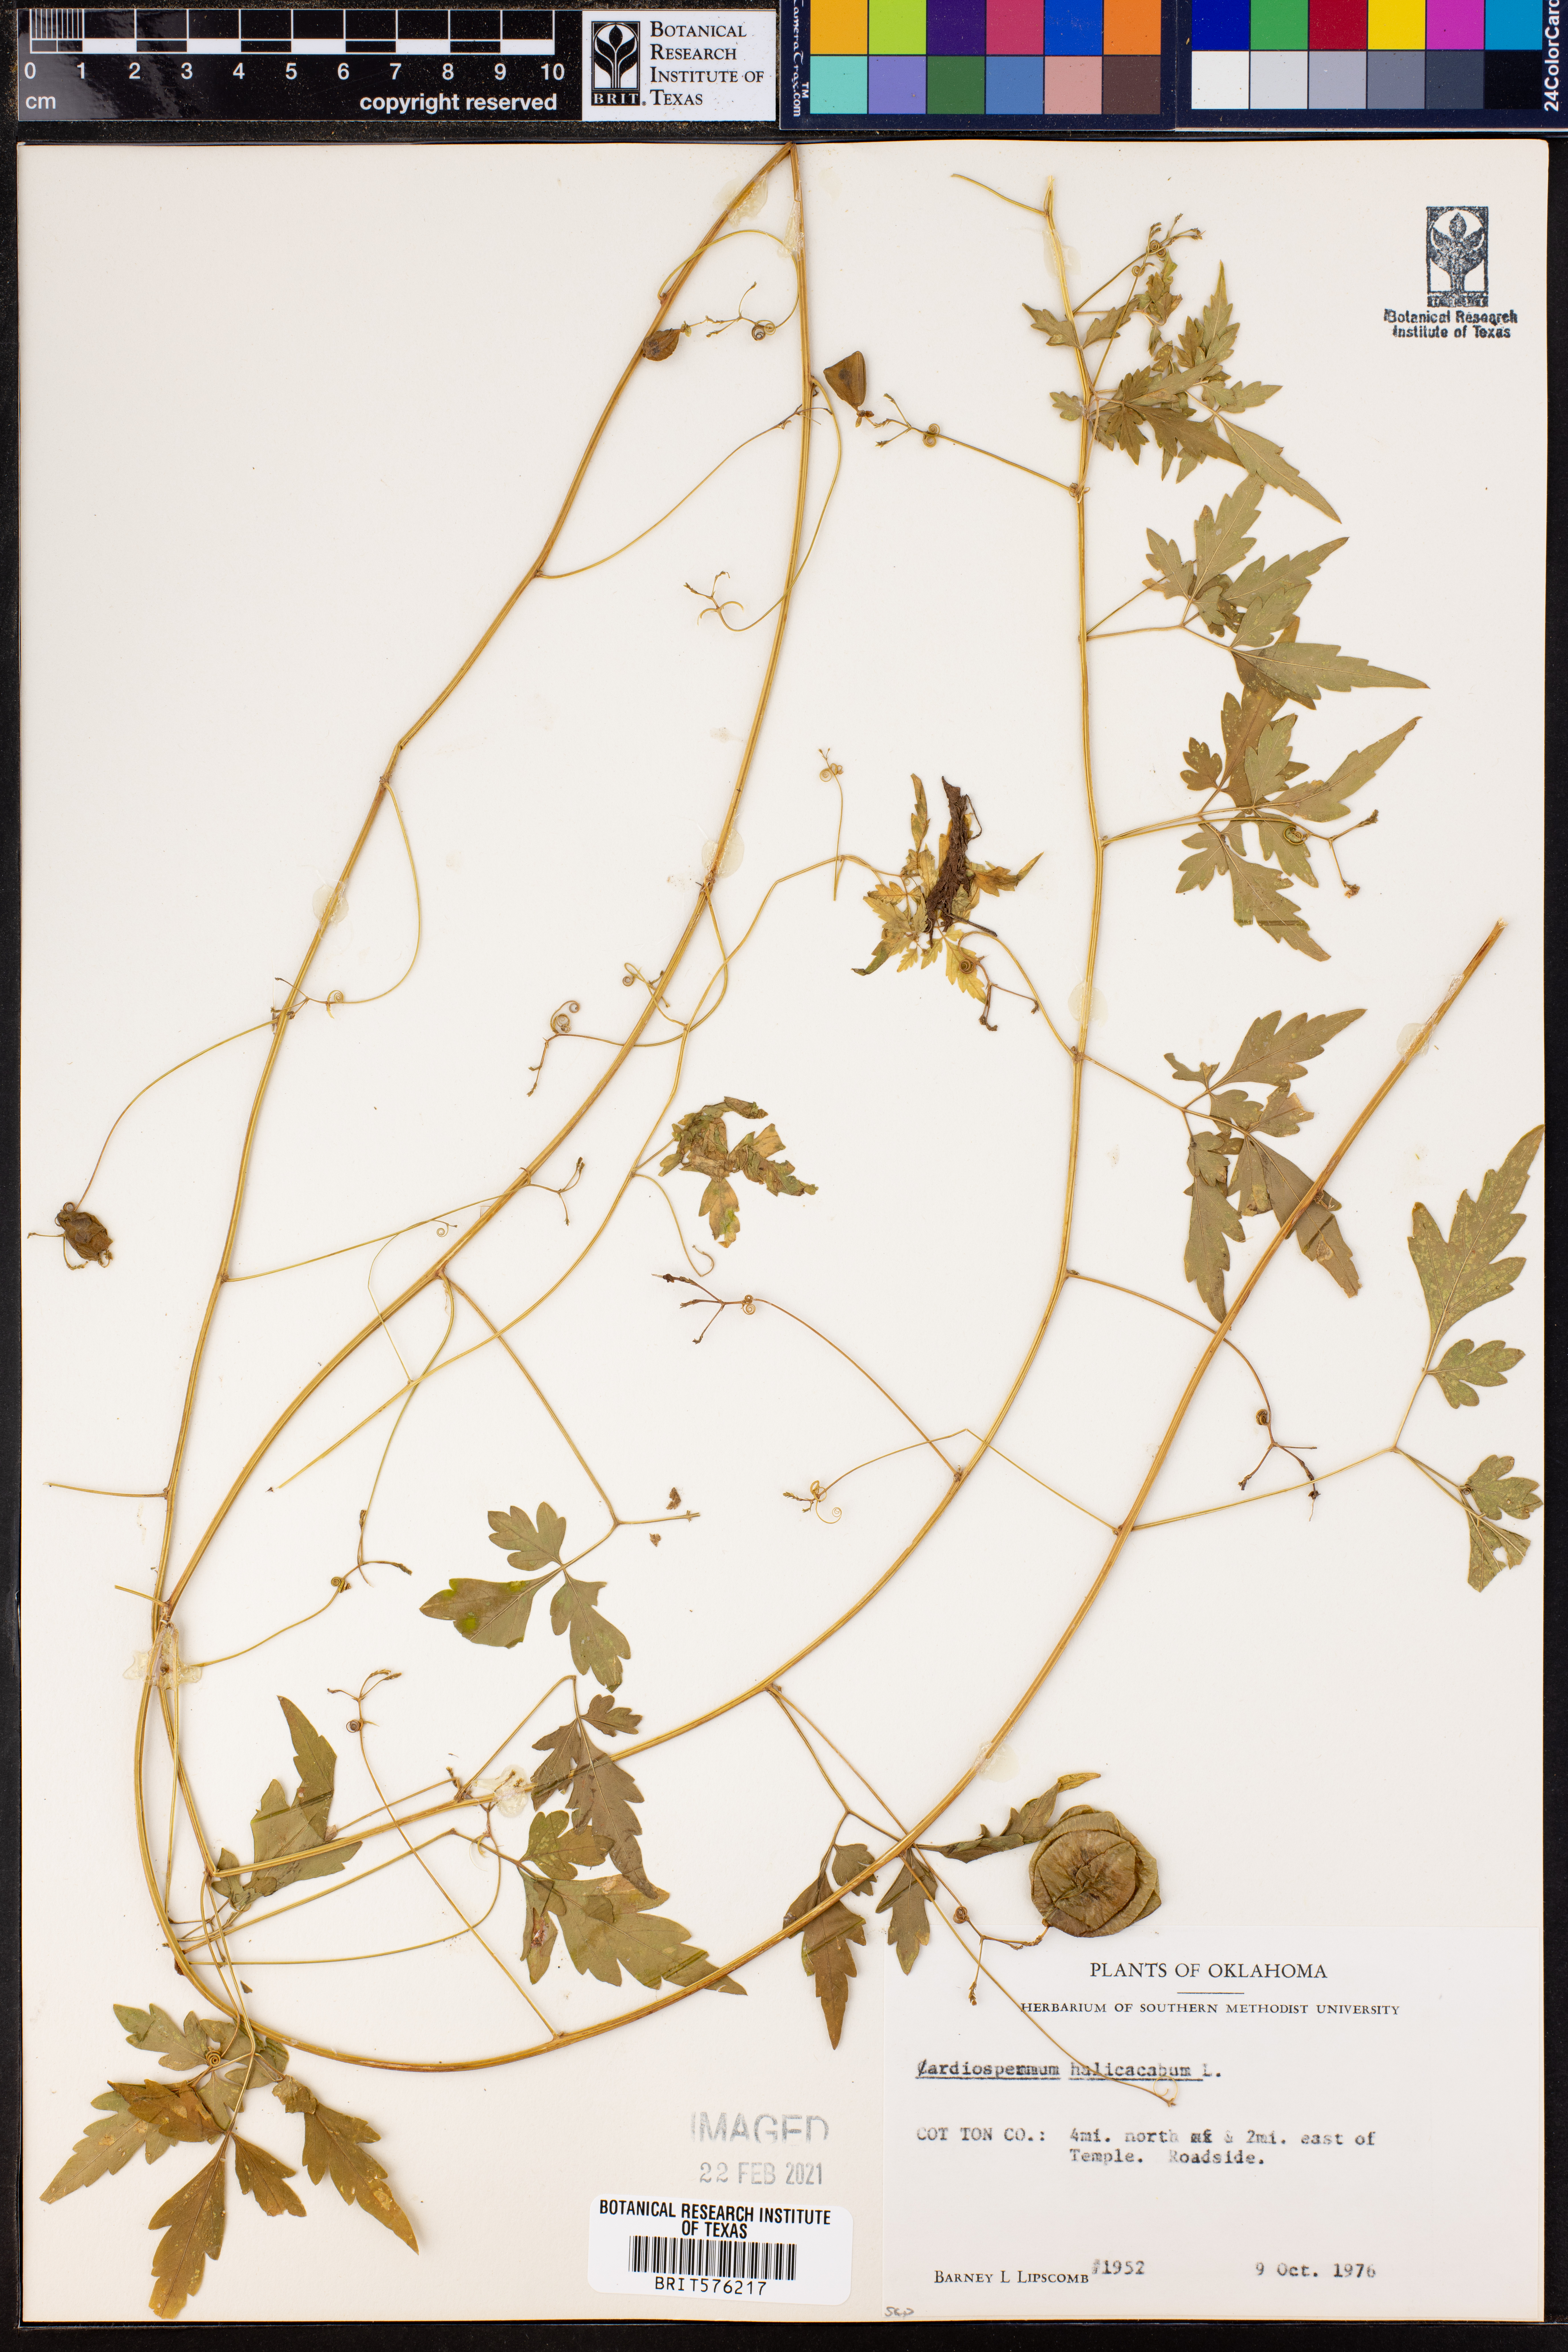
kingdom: Plantae
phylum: Tracheophyta
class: Magnoliopsida
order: Sapindales
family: Sapindaceae
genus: Cardiospermum
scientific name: Cardiospermum halicacabum
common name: Balloon vine
